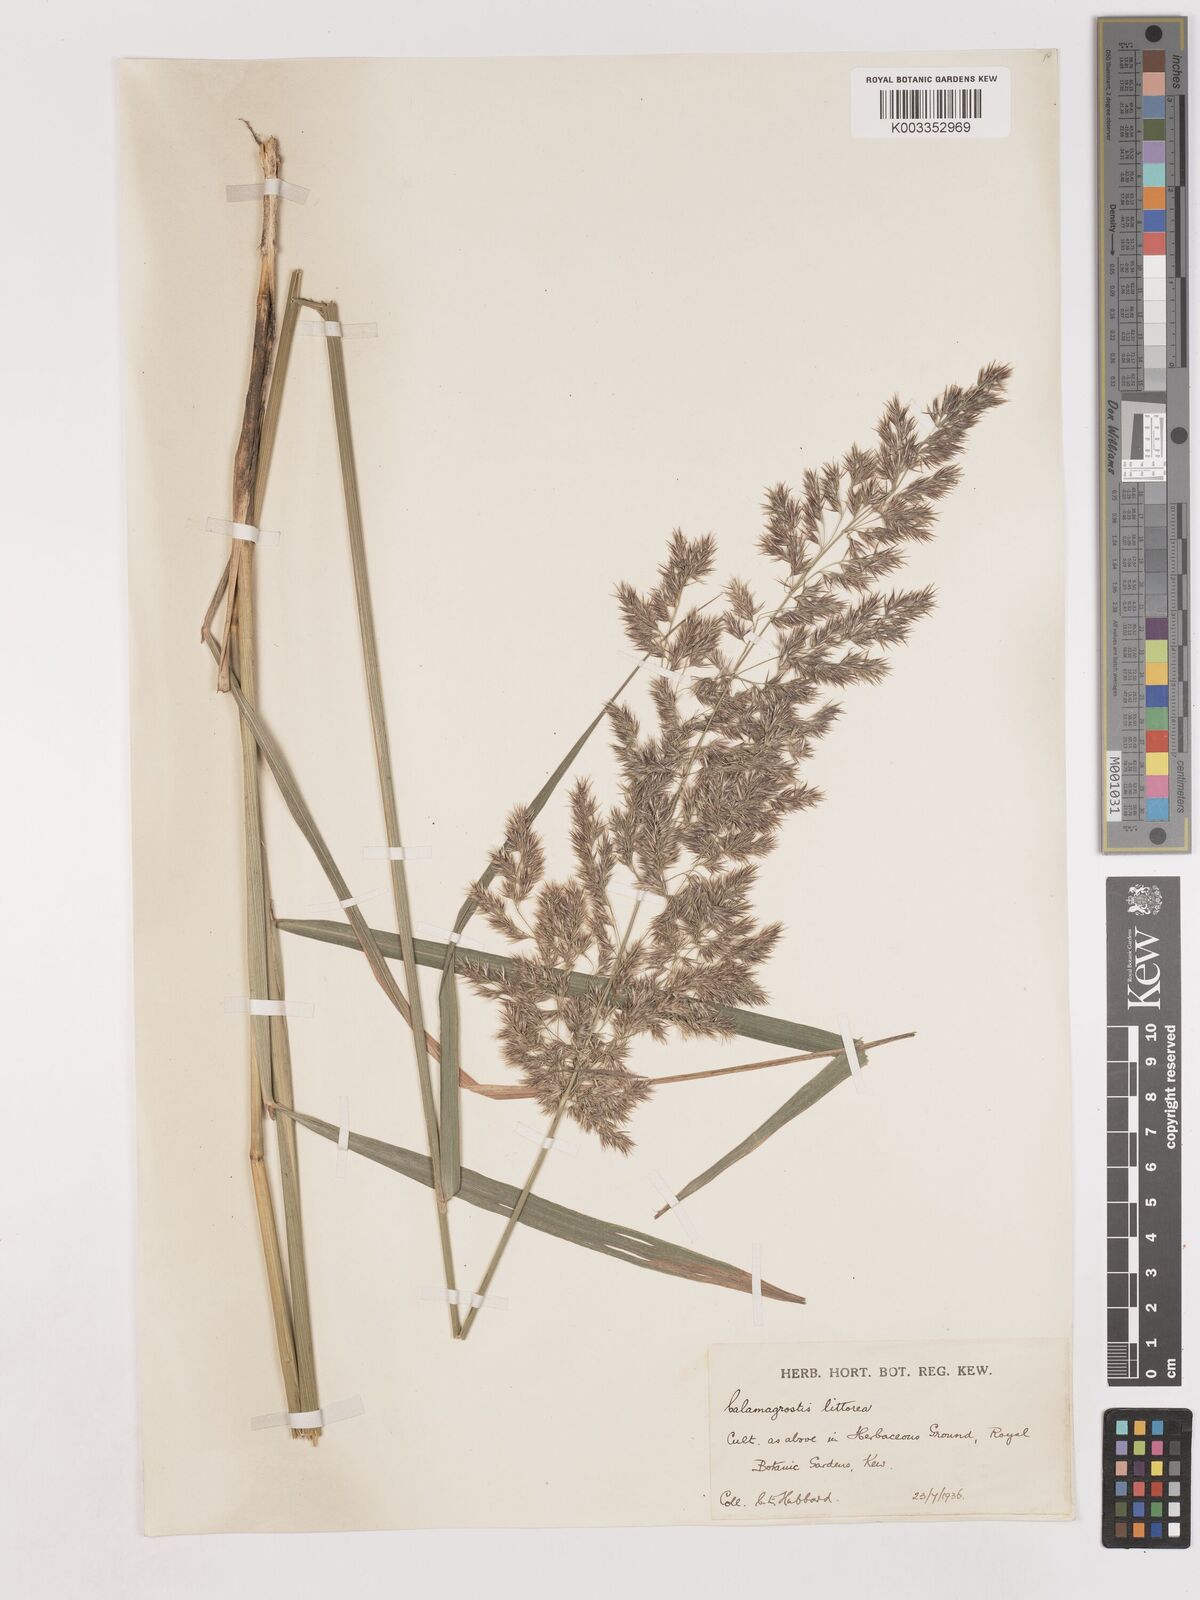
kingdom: Plantae
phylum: Tracheophyta
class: Liliopsida
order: Poales
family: Poaceae
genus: Calamagrostis
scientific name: Calamagrostis pseudophragmites
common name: Coastal small-reed
